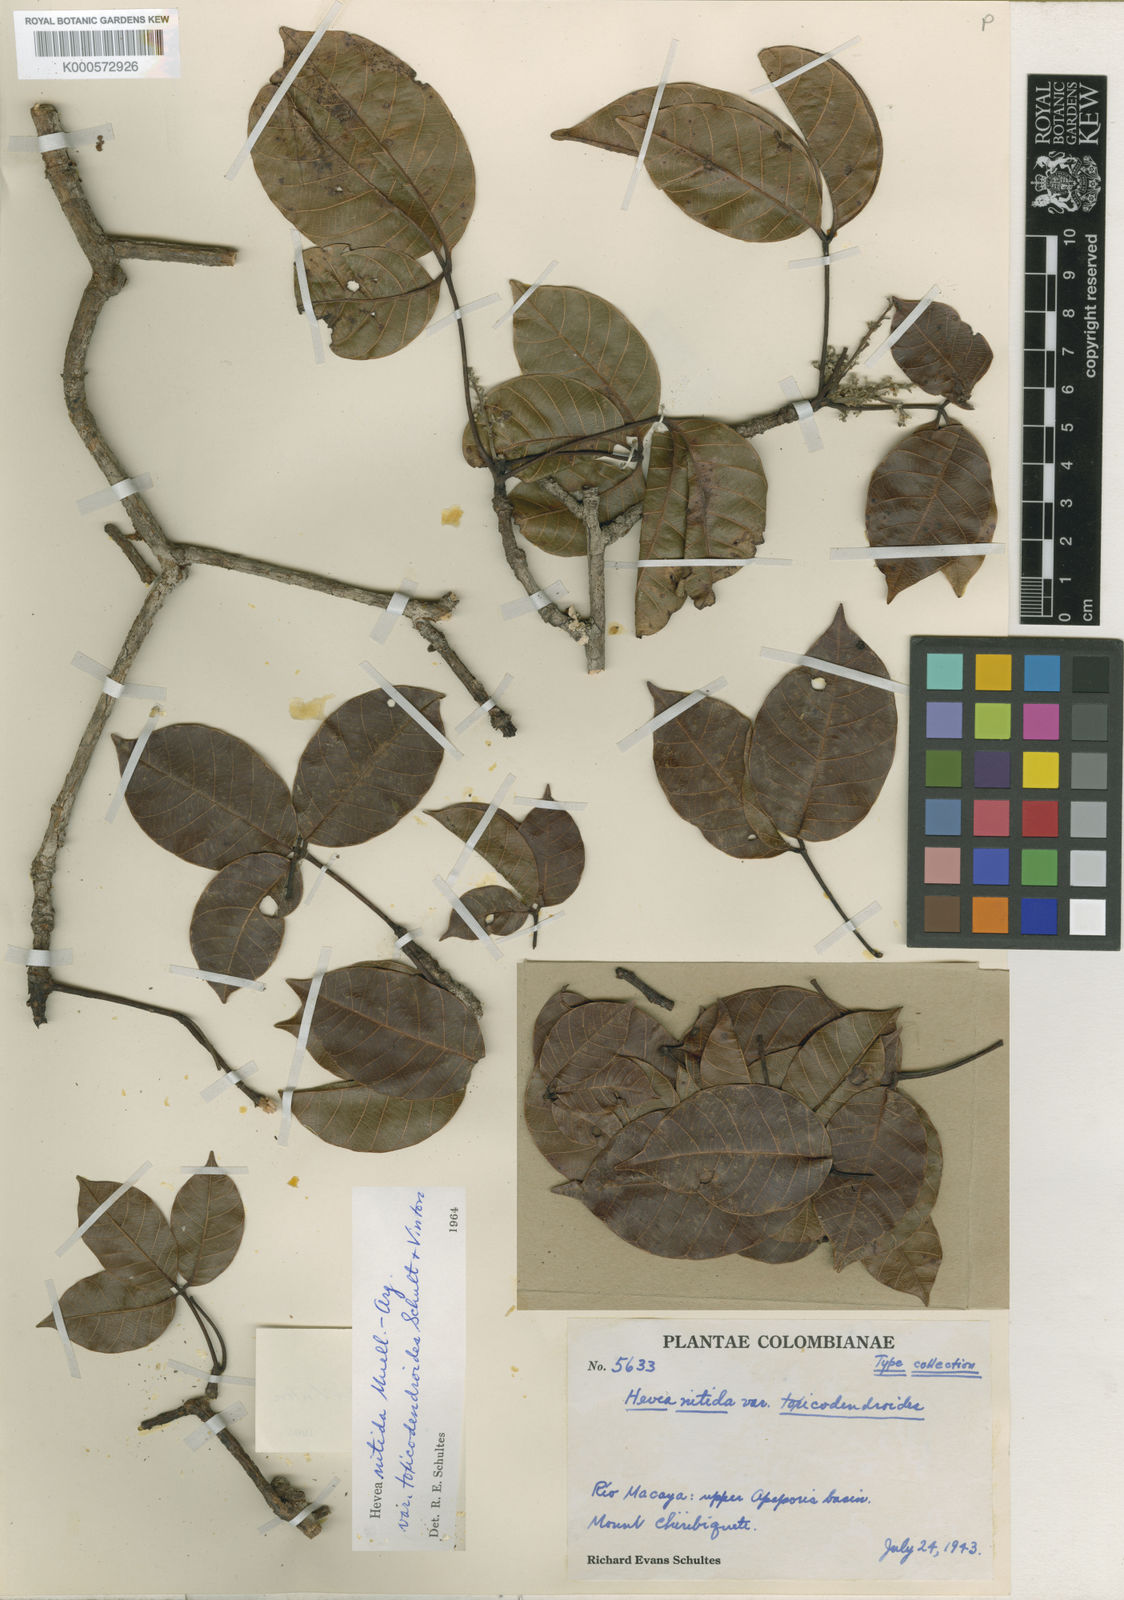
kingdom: Plantae
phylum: Tracheophyta
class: Magnoliopsida
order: Malpighiales
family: Euphorbiaceae
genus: Hevea
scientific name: Hevea nitida
